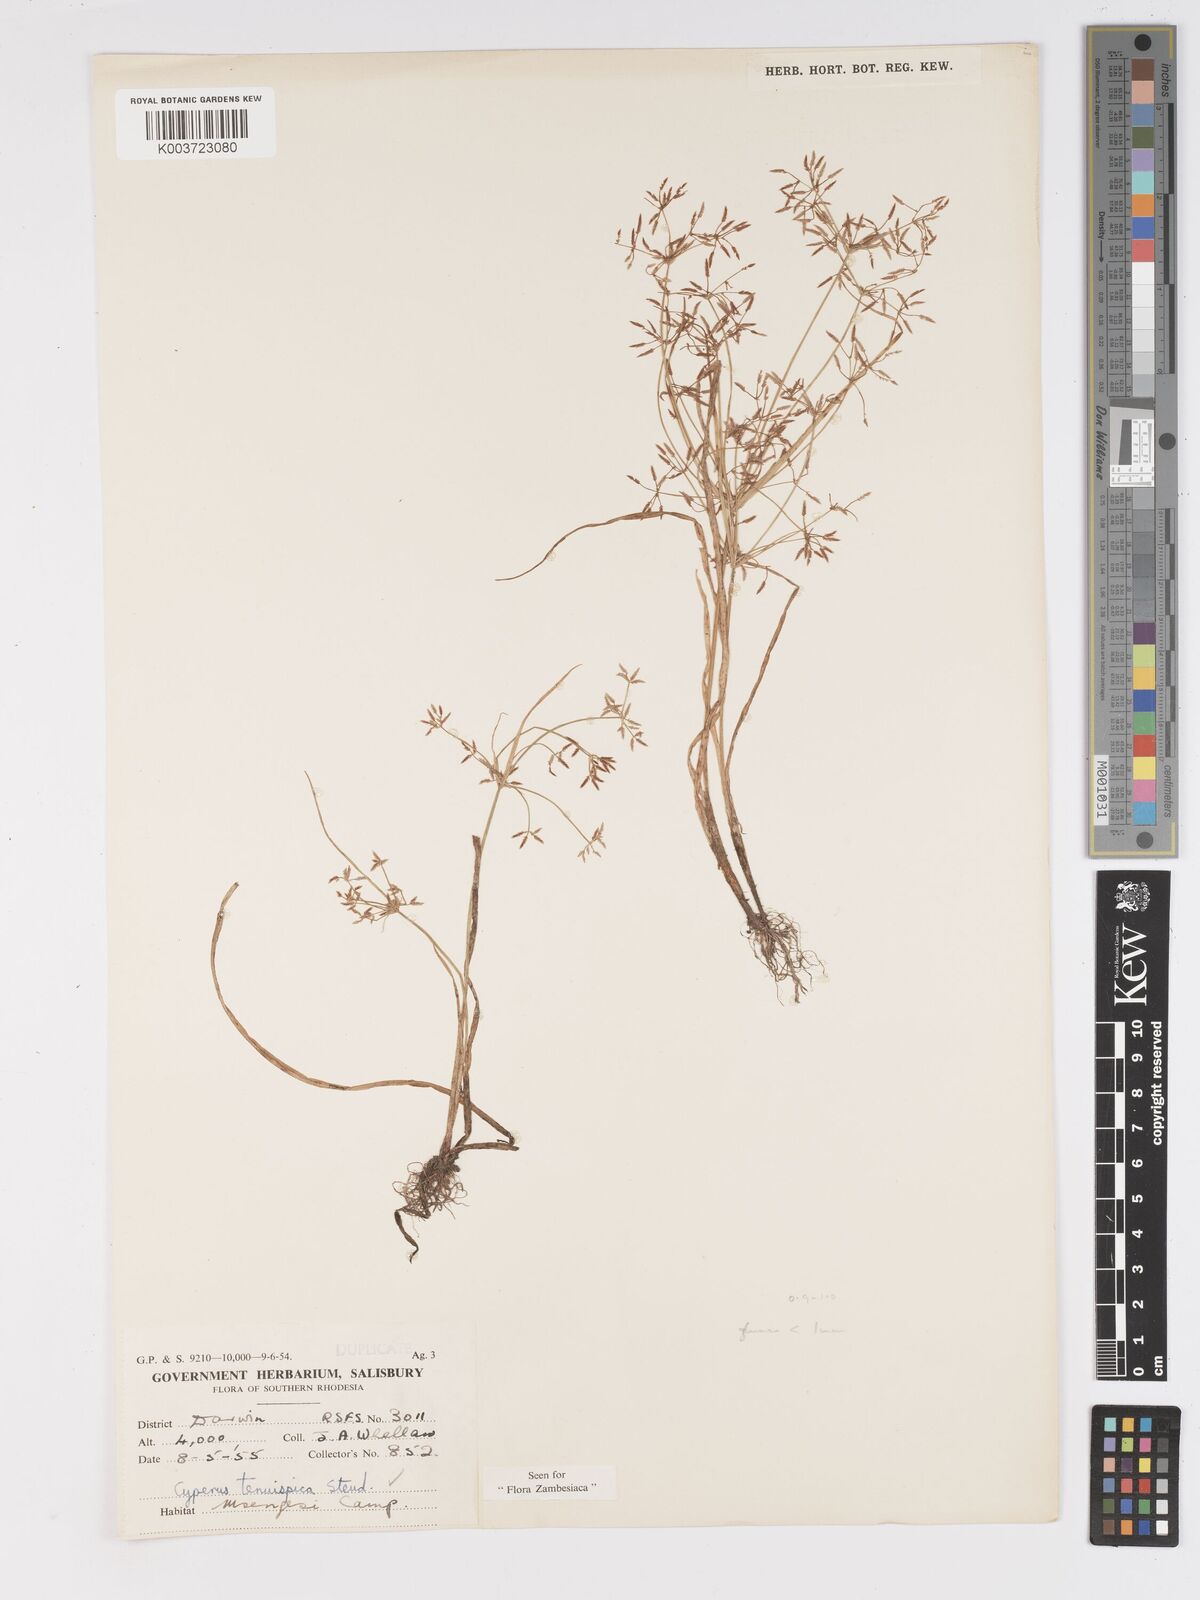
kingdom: Plantae
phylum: Tracheophyta
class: Liliopsida
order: Poales
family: Cyperaceae
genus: Cyperus
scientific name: Cyperus tenuispica
